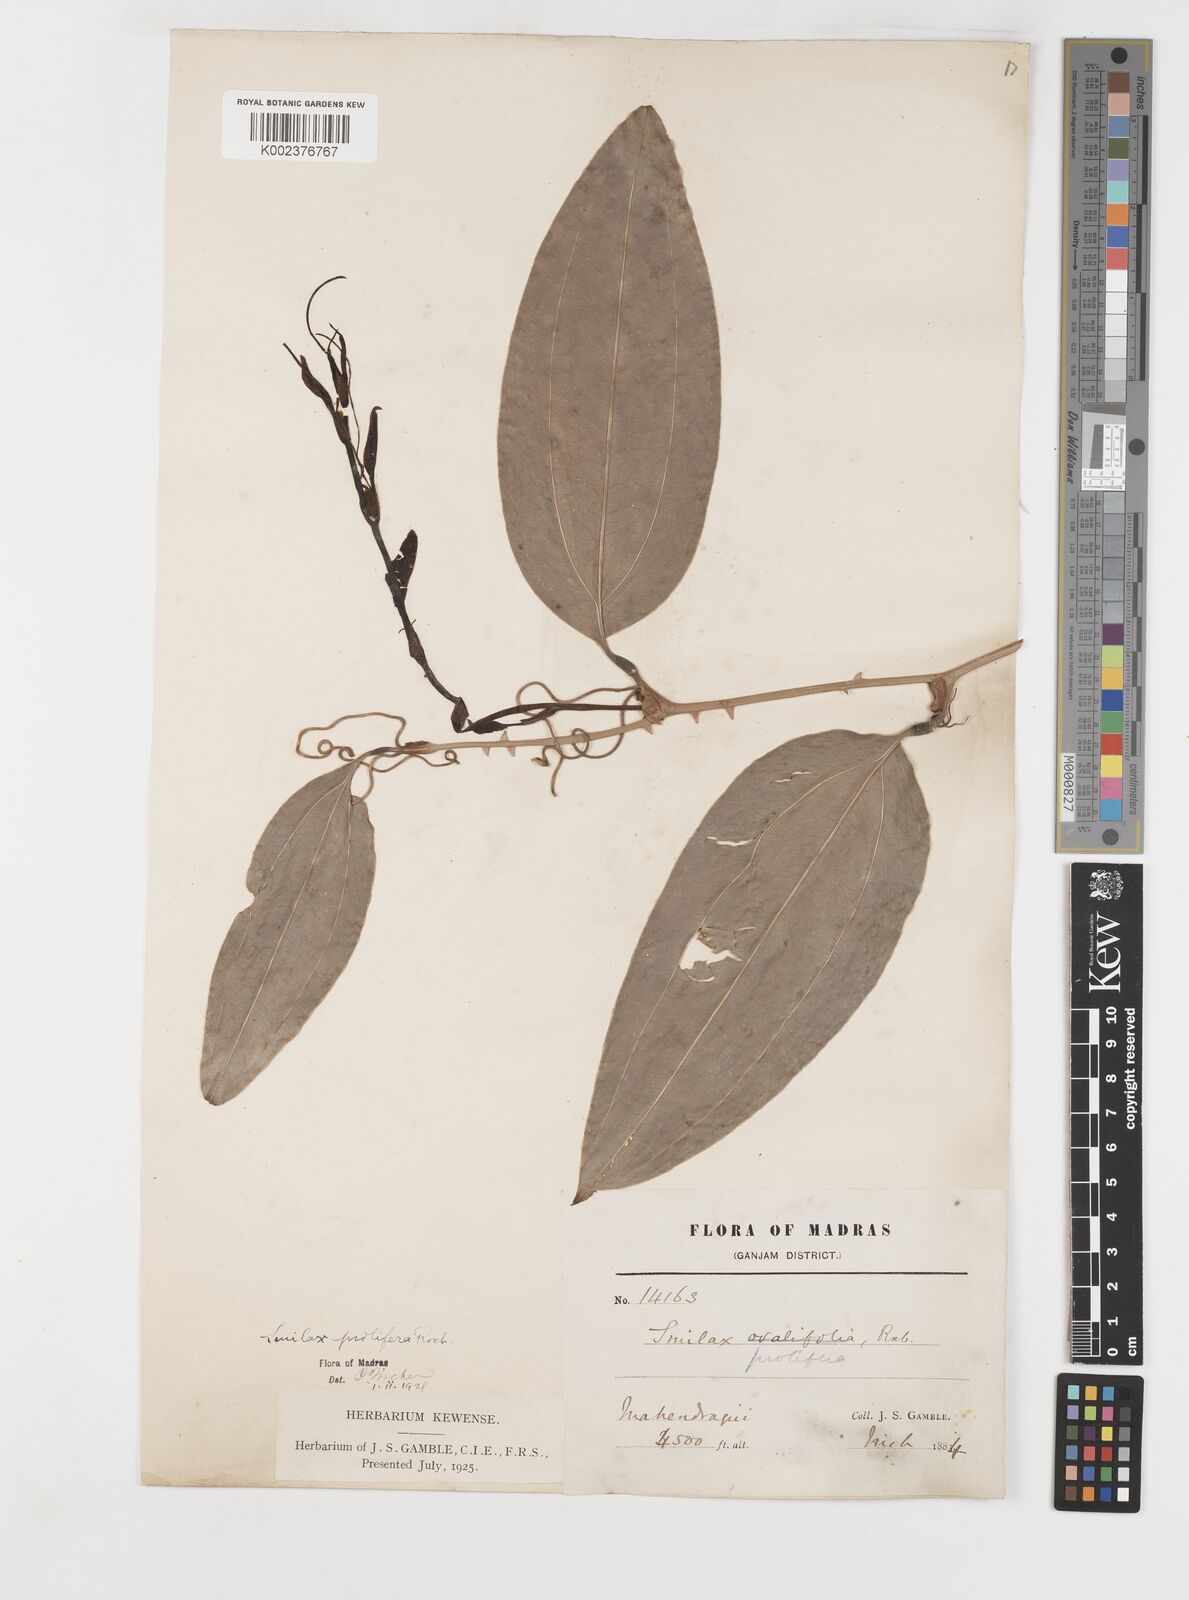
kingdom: Plantae
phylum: Tracheophyta
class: Liliopsida
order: Liliales
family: Smilacaceae
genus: Smilax
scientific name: Smilax ocreata
